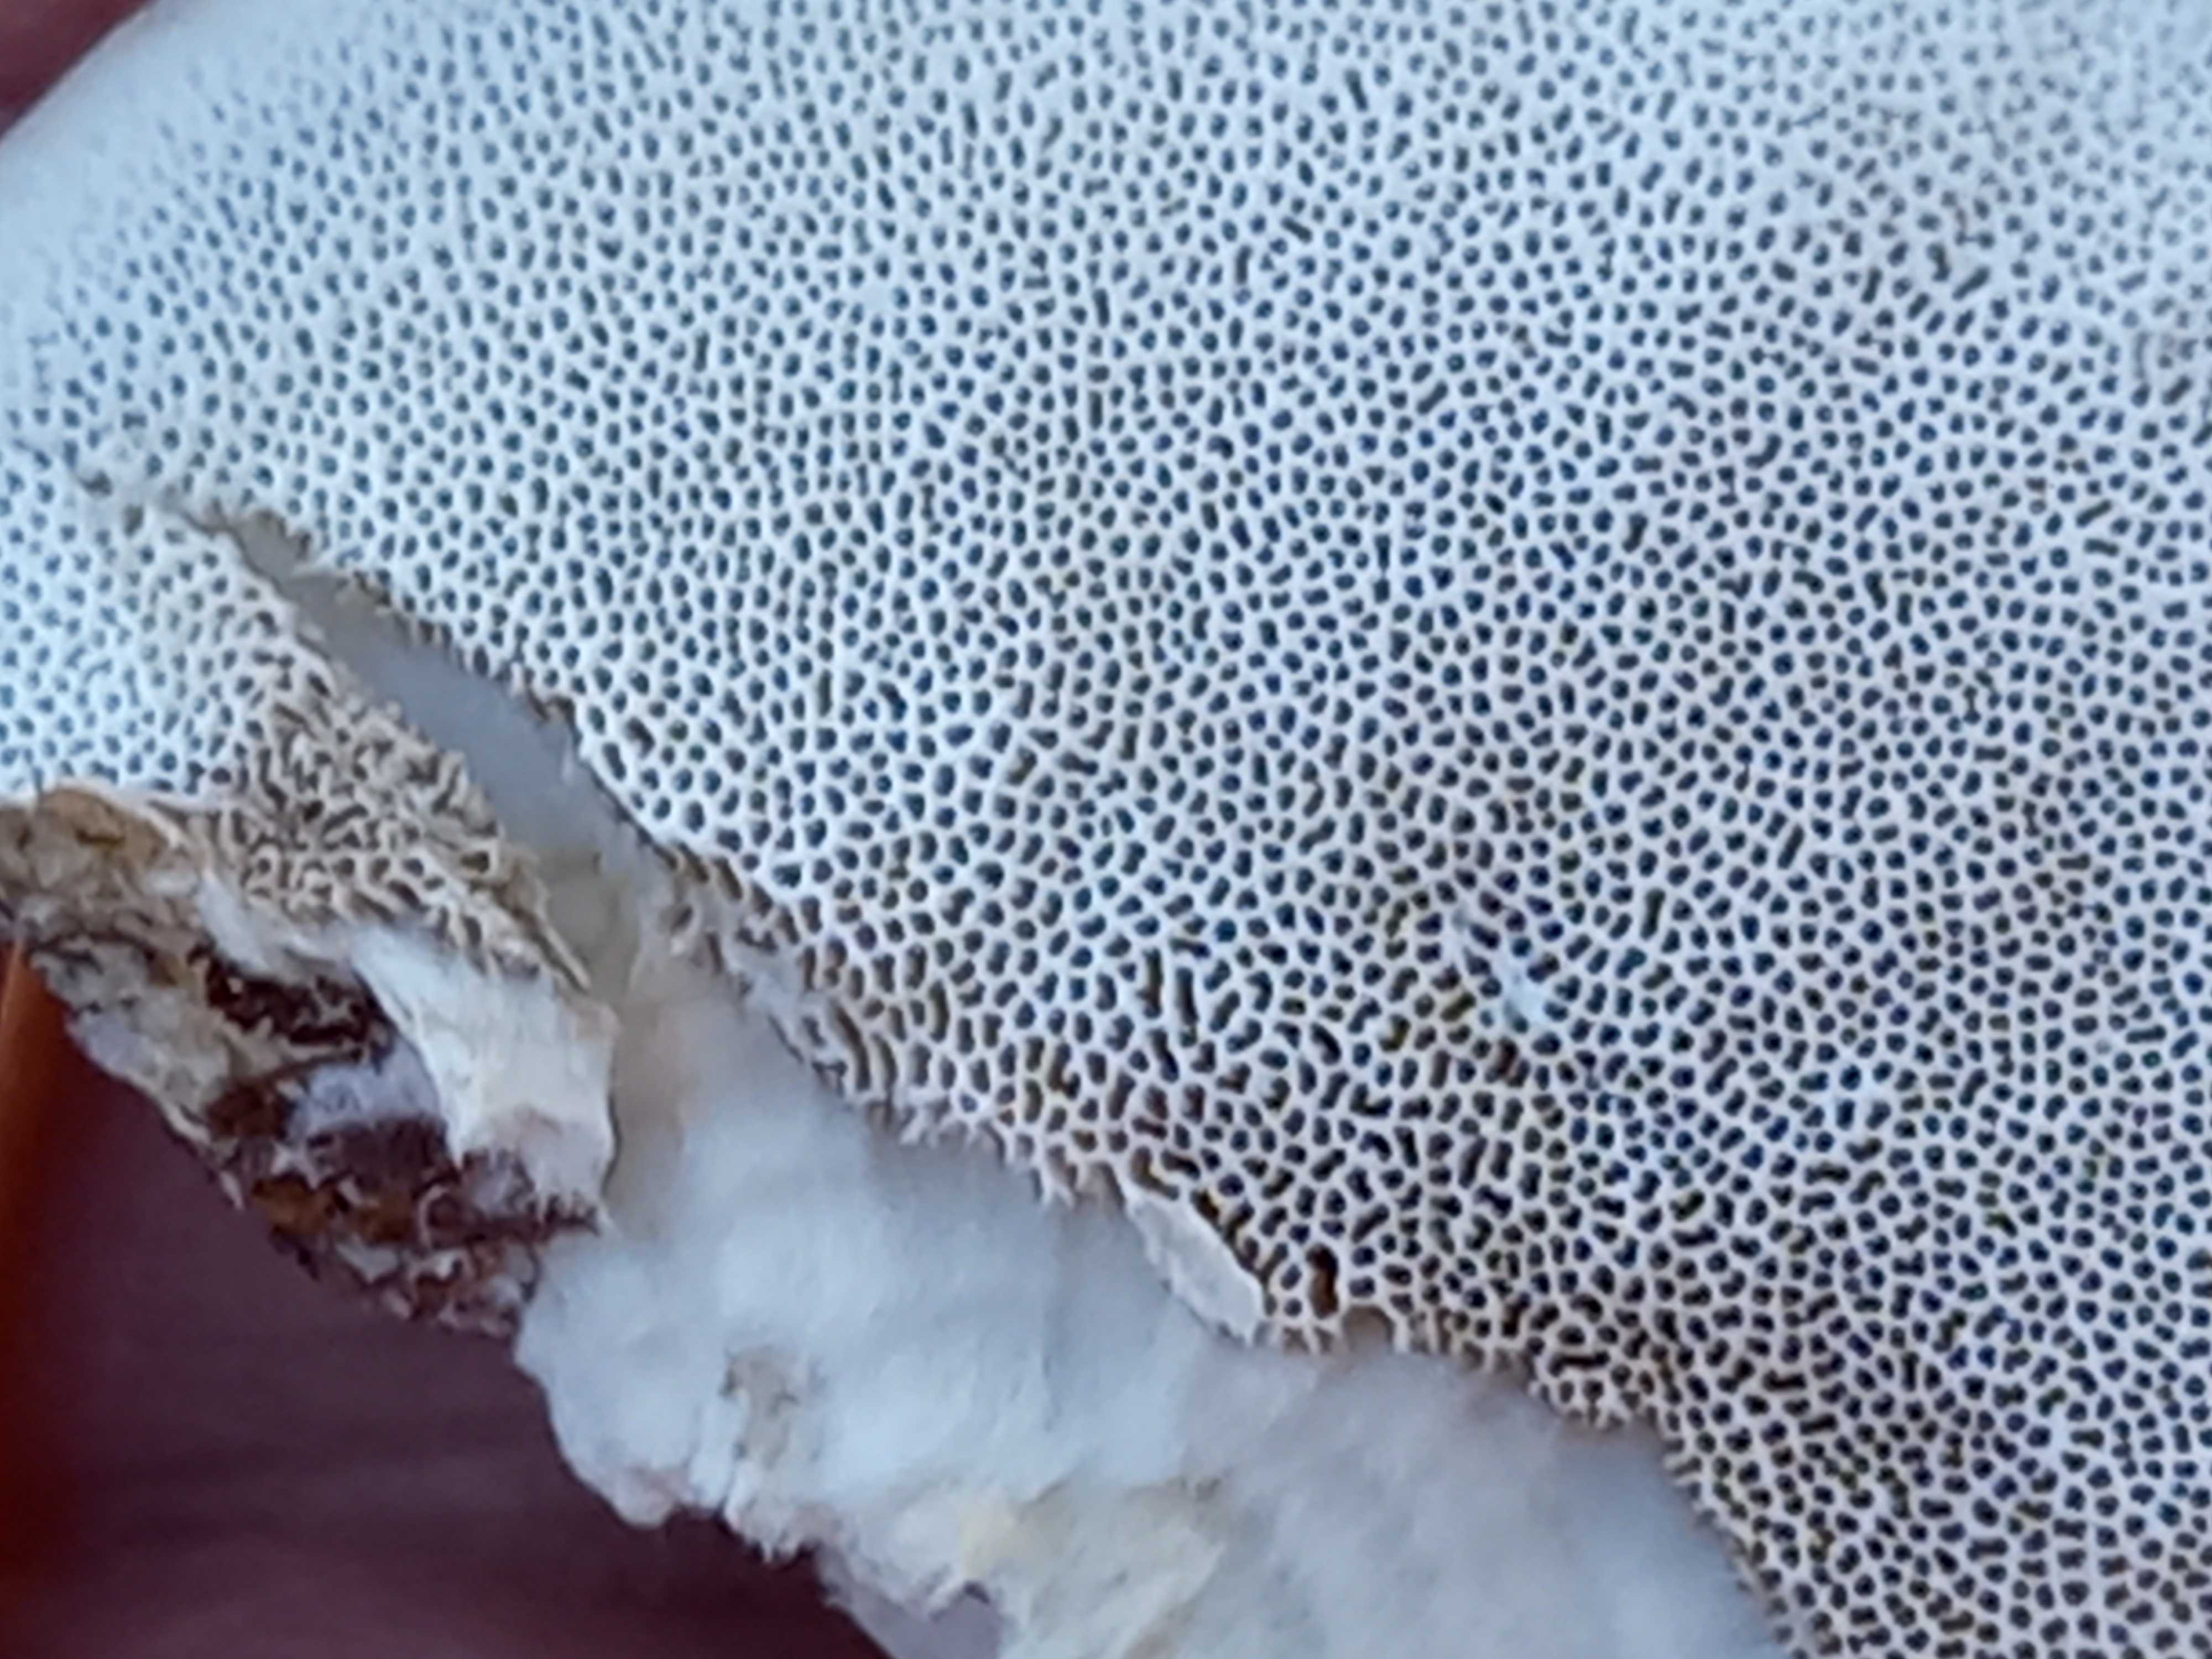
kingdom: Fungi
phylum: Basidiomycota
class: Agaricomycetes
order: Polyporales
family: Polyporaceae
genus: Trametes
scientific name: Trametes hirsuta
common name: håret læderporesvamp
